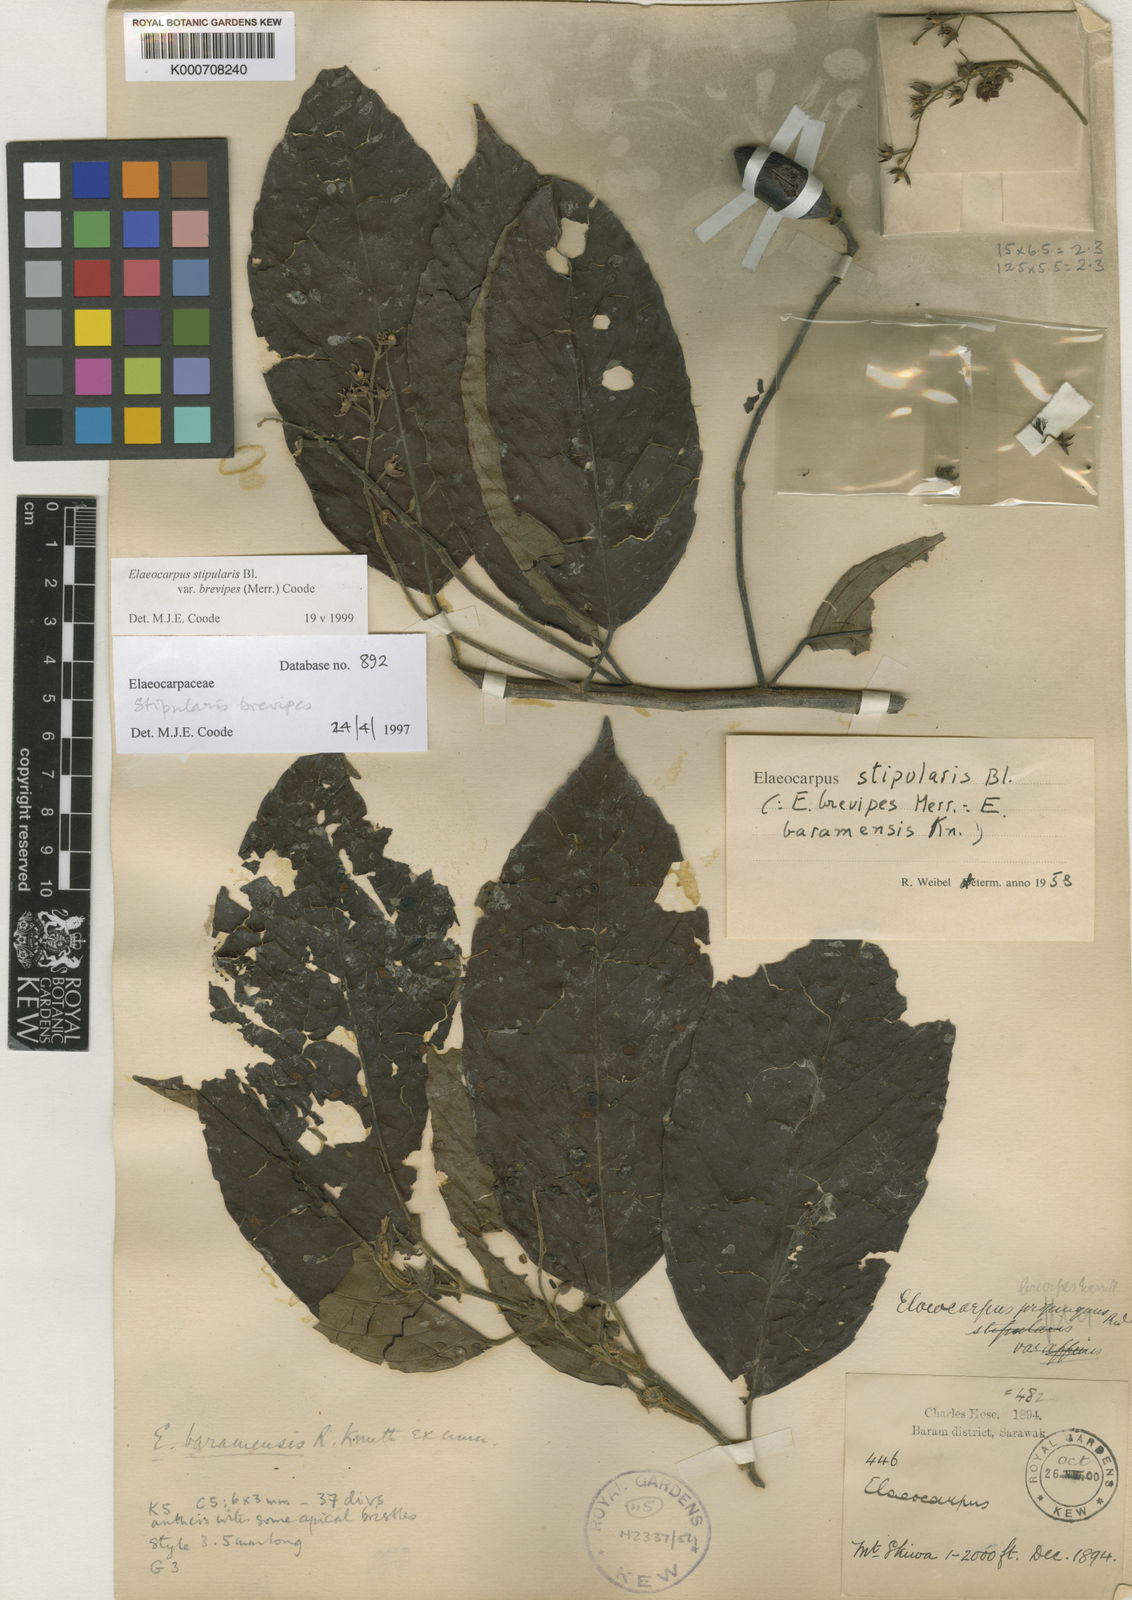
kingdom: Plantae
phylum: Tracheophyta
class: Magnoliopsida
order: Oxalidales
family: Elaeocarpaceae
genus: Elaeocarpus
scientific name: Elaeocarpus stipularis
